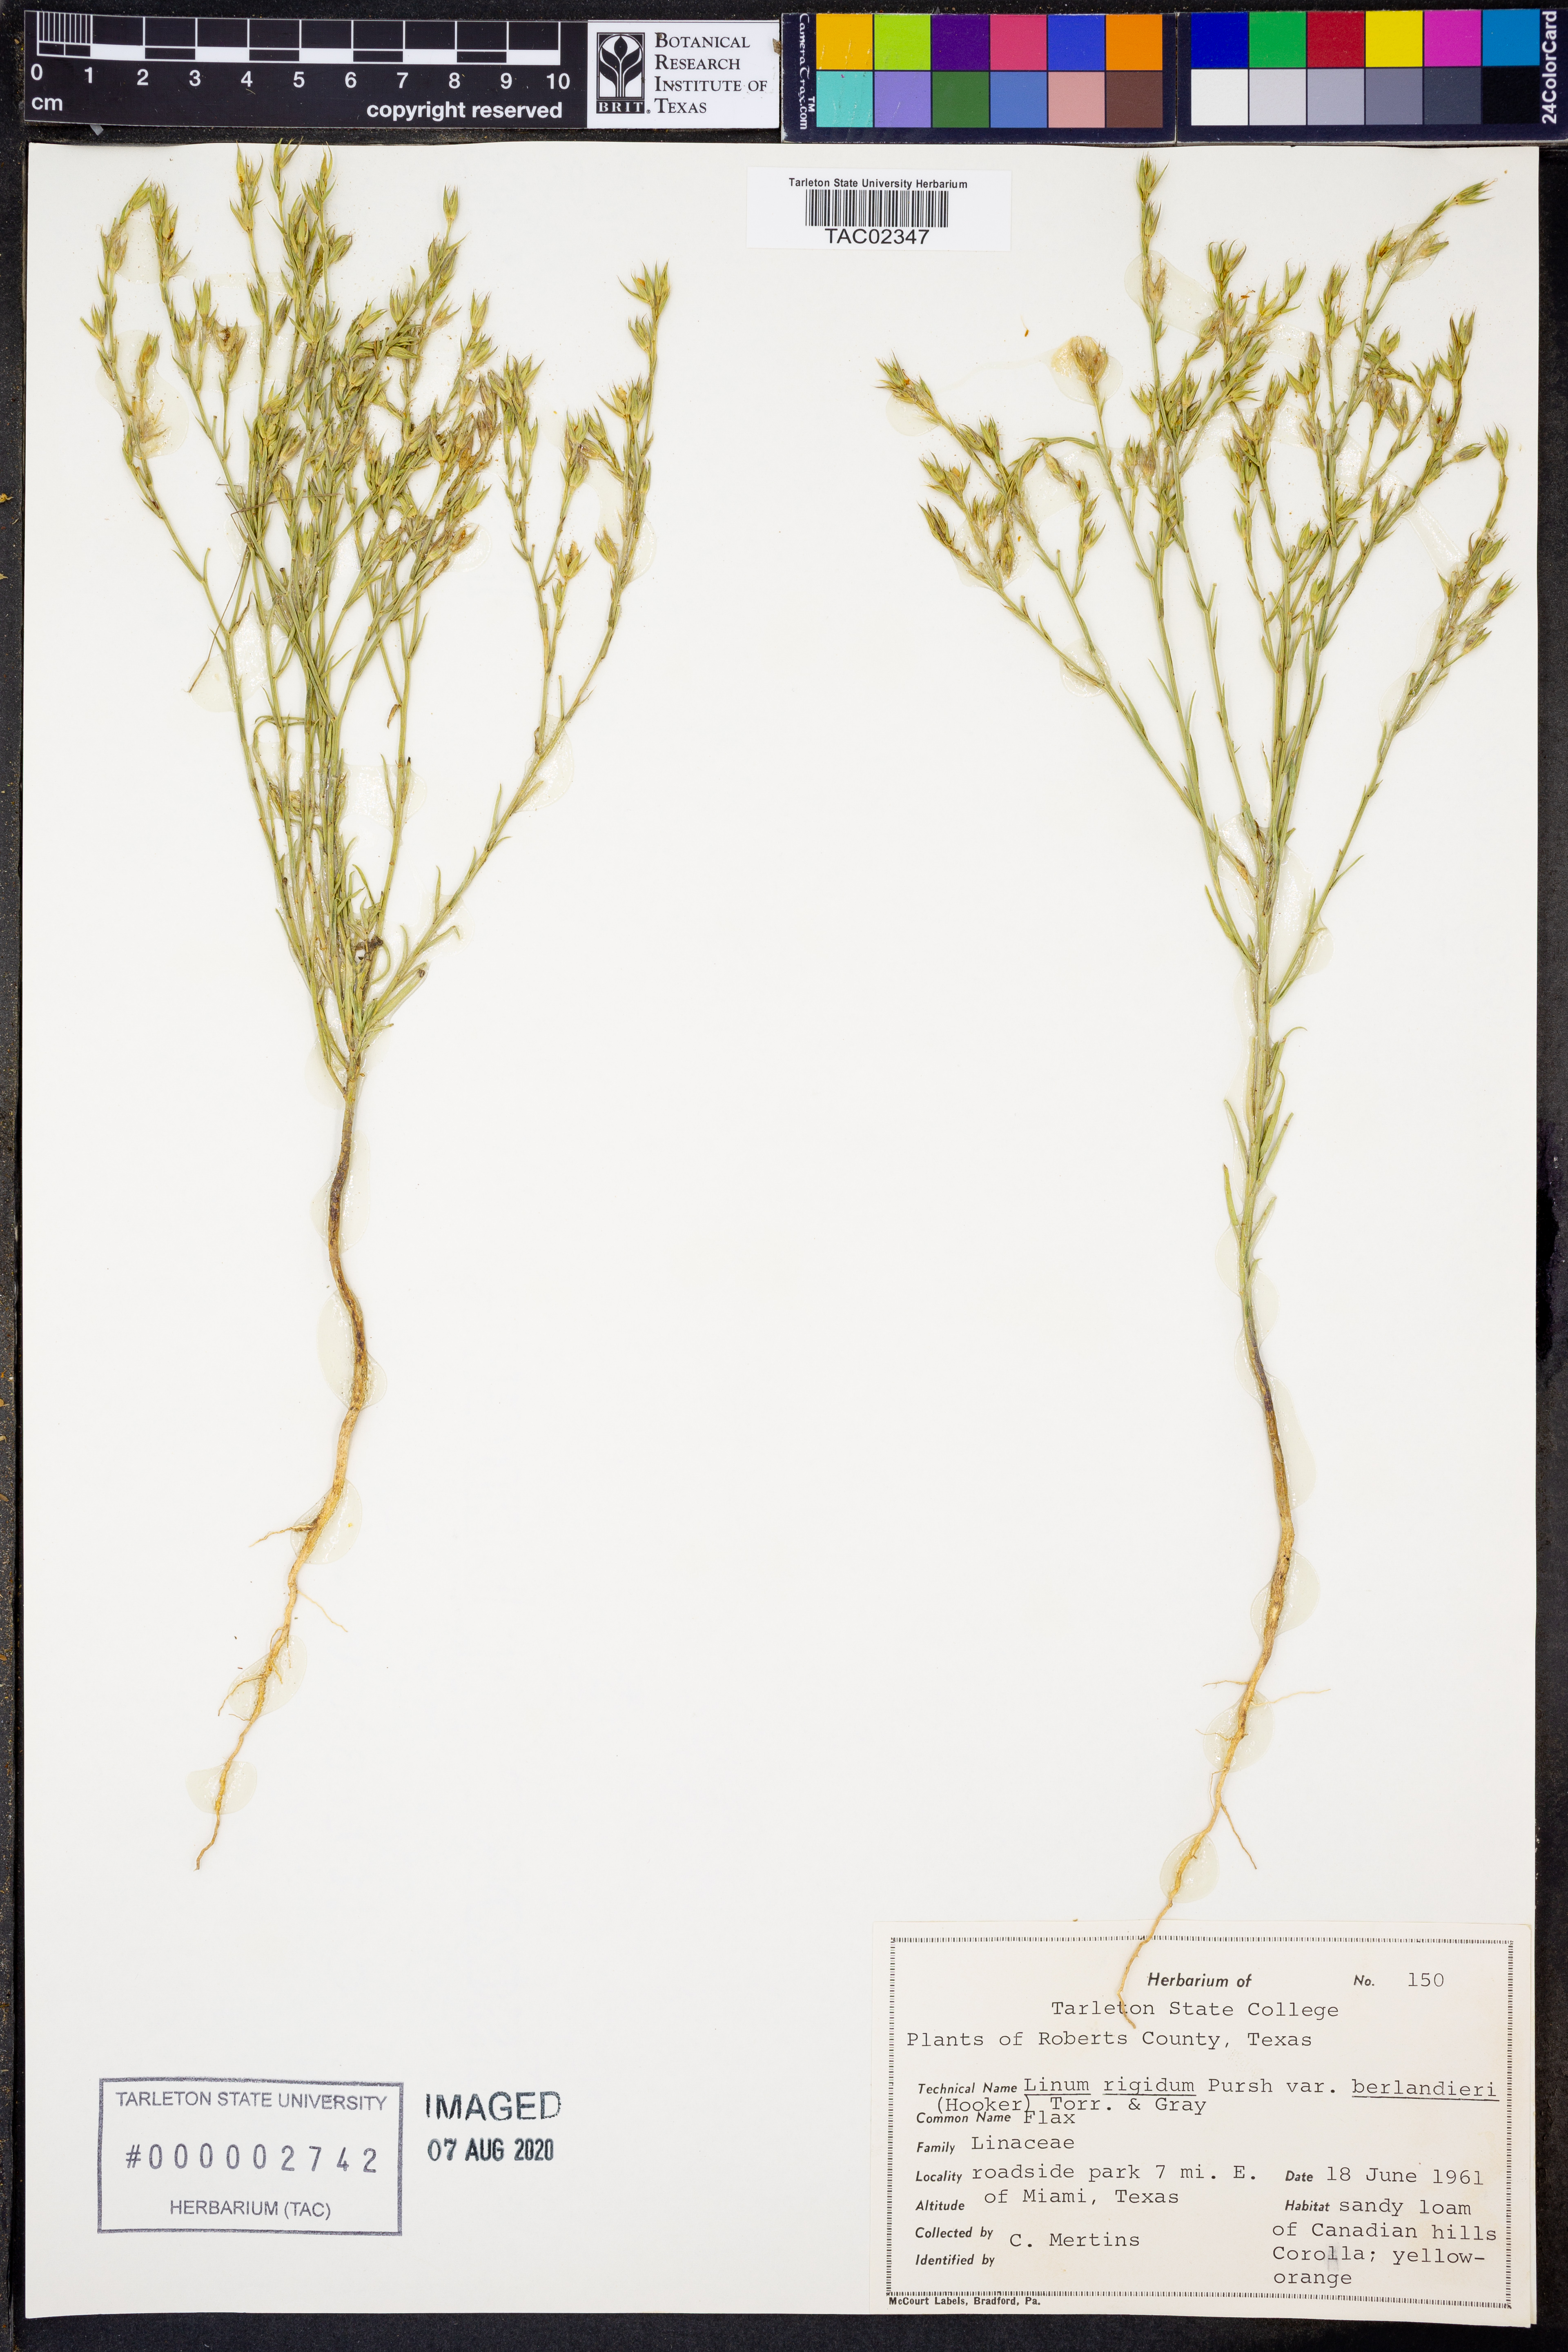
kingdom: Plantae
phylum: Tracheophyta
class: Magnoliopsida
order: Malpighiales
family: Linaceae
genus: Linum
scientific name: Linum berlandieri
